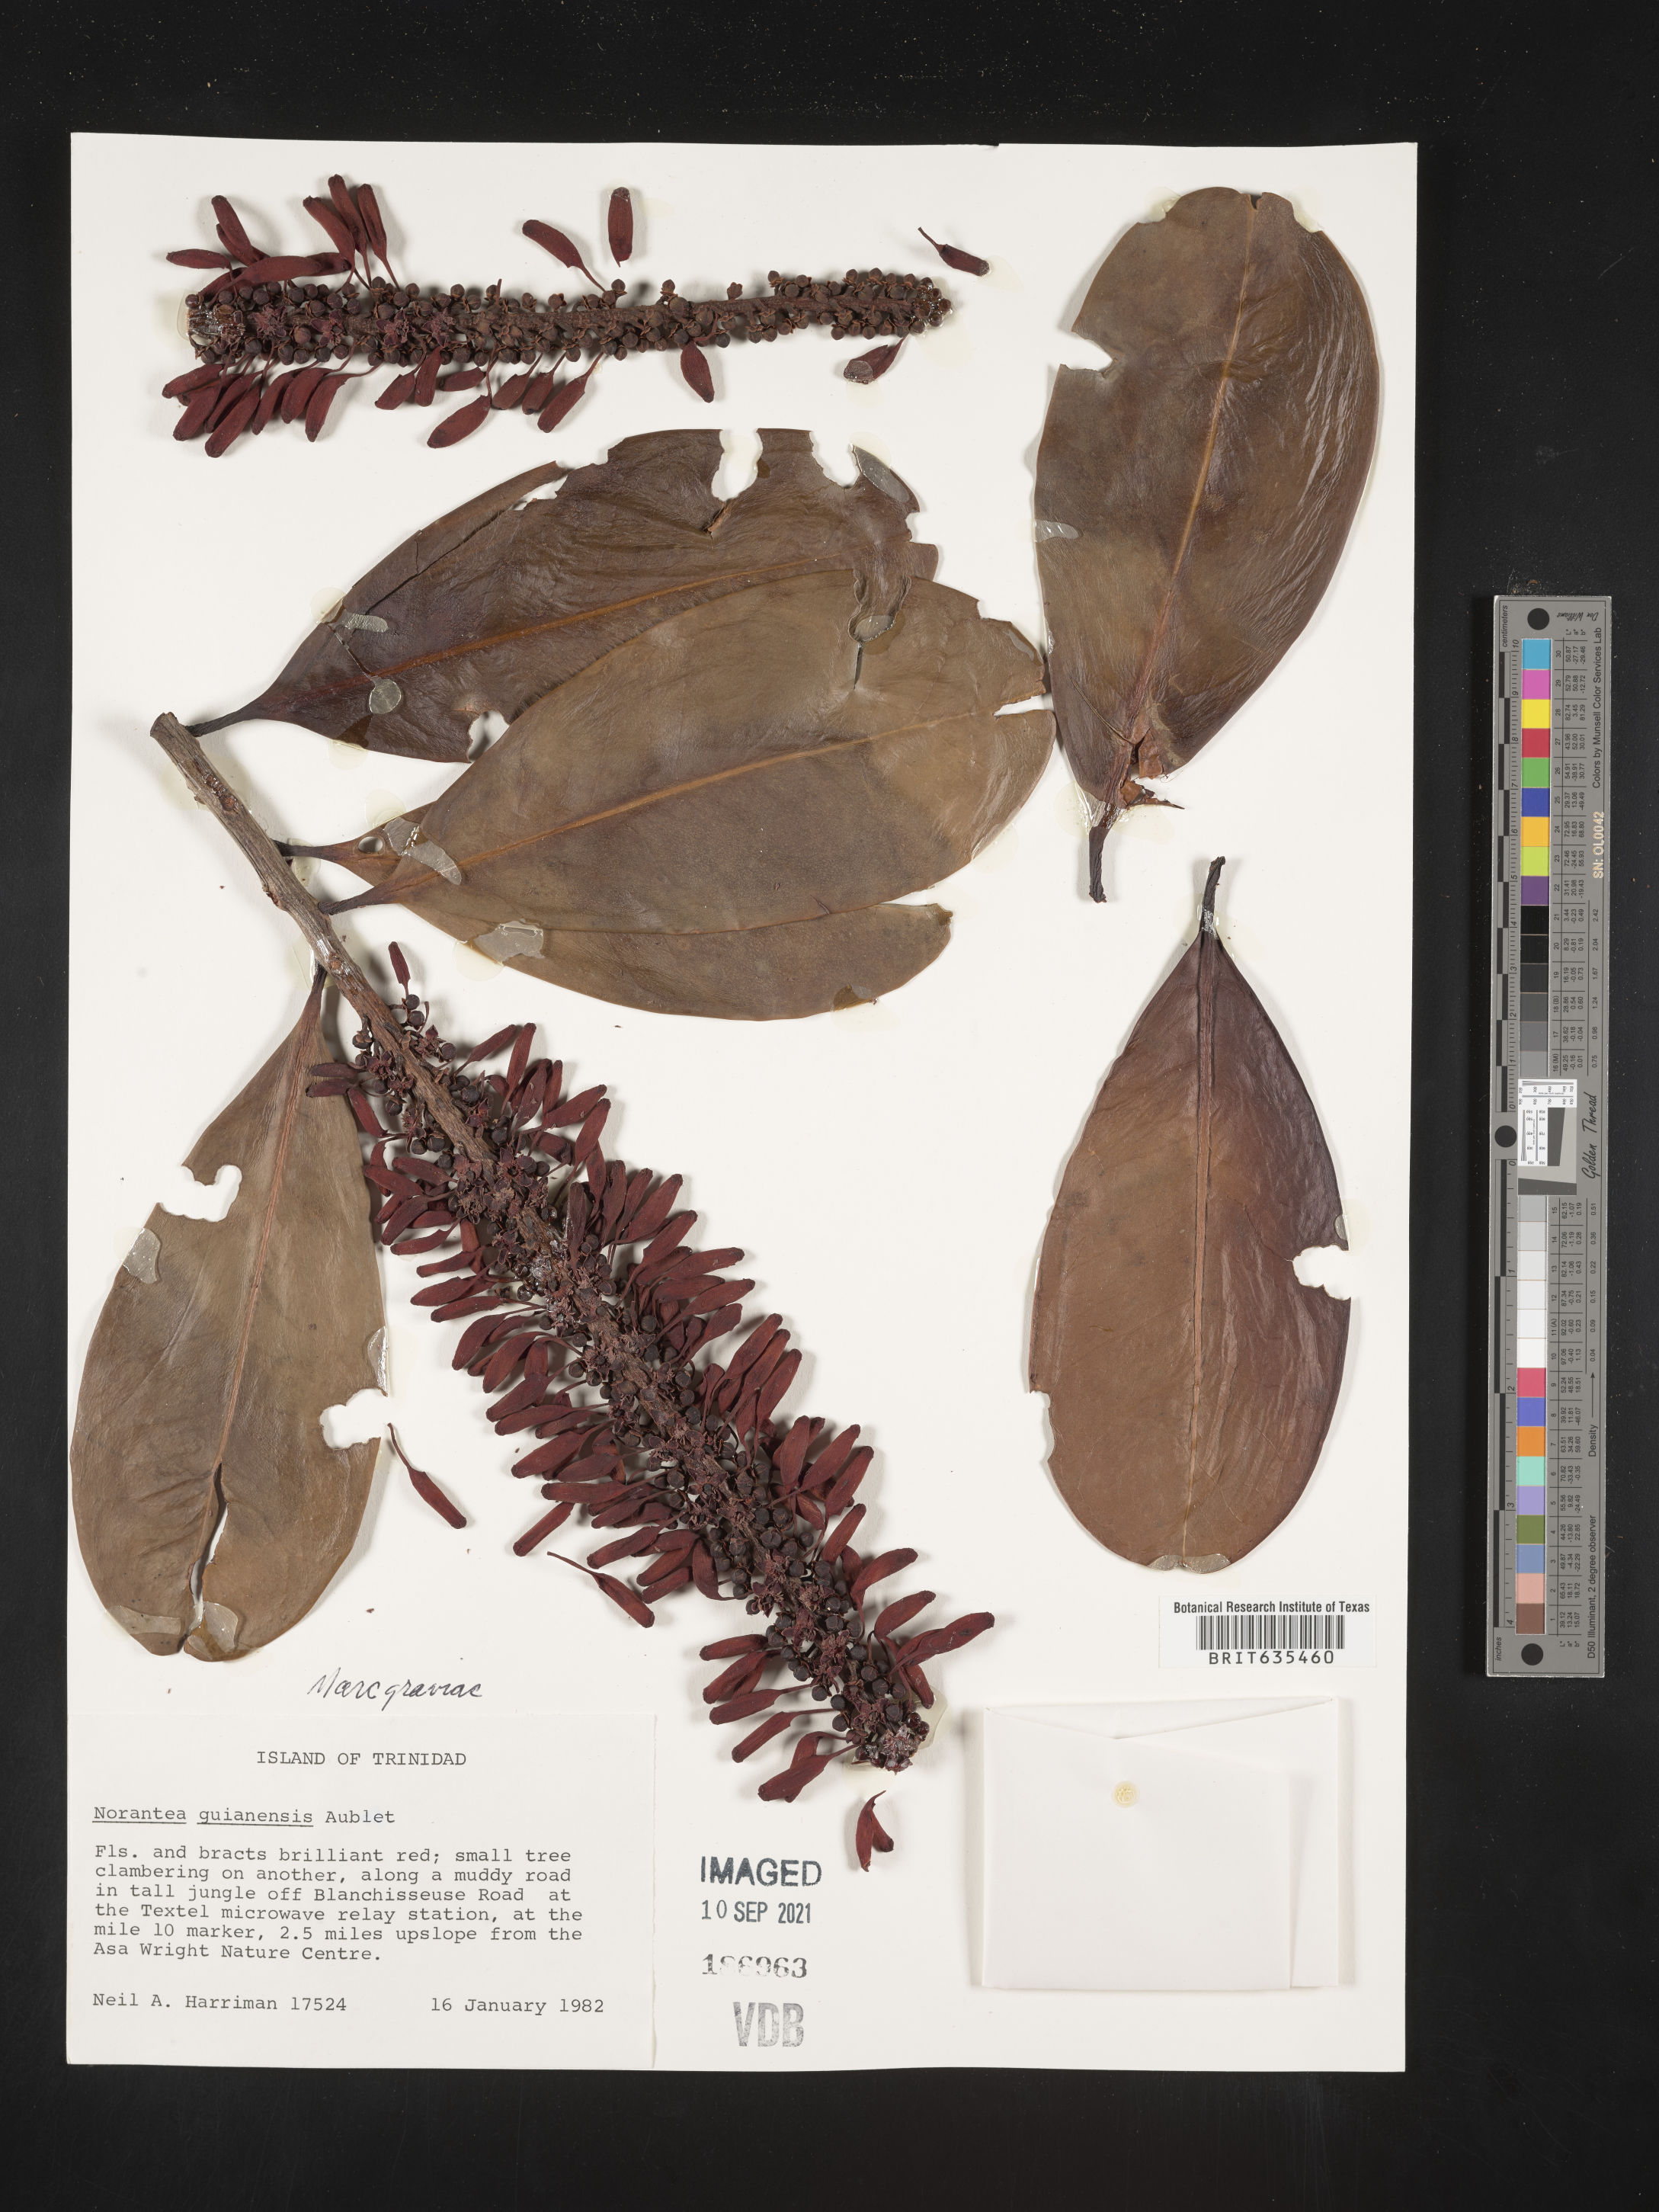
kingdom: Plantae
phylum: Tracheophyta
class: Magnoliopsida
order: Ericales
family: Marcgraviaceae
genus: Norantea
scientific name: Norantea
